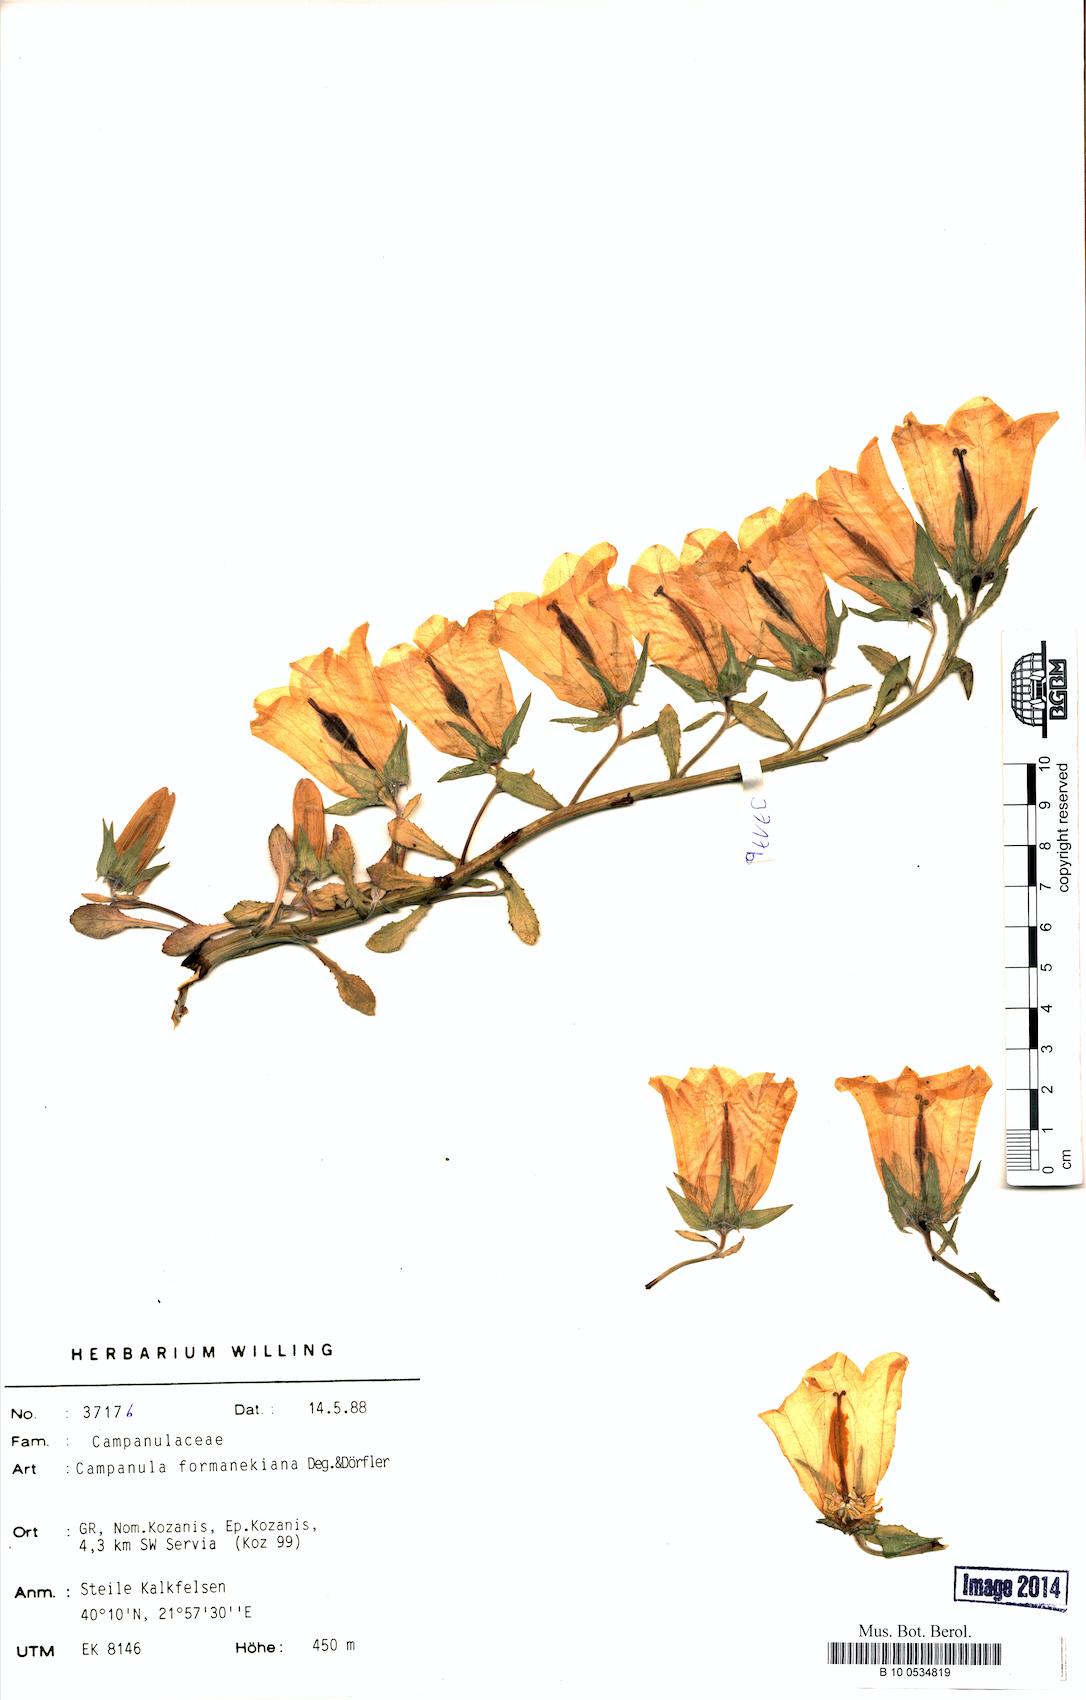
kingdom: Plantae
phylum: Tracheophyta
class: Magnoliopsida
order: Asterales
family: Campanulaceae
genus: Campanula
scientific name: Campanula formanekiana
